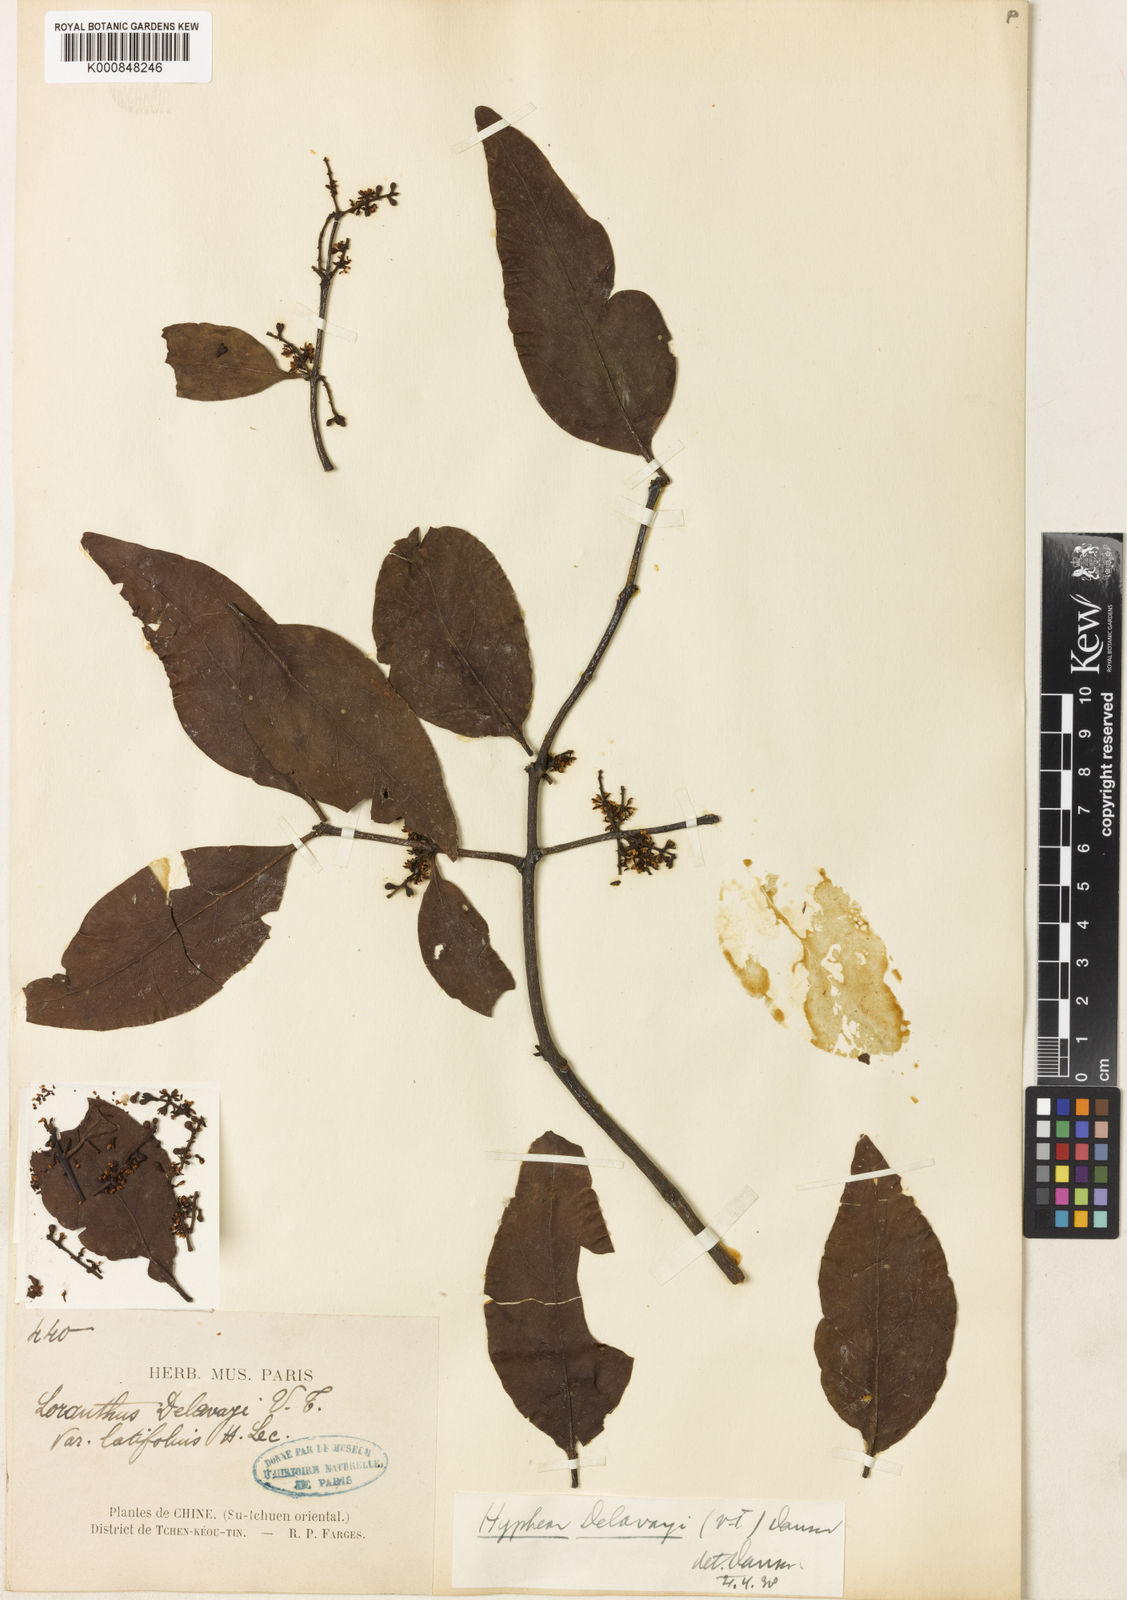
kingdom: Plantae
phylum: Tracheophyta
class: Magnoliopsida
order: Santalales
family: Loranthaceae
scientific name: Loranthaceae
